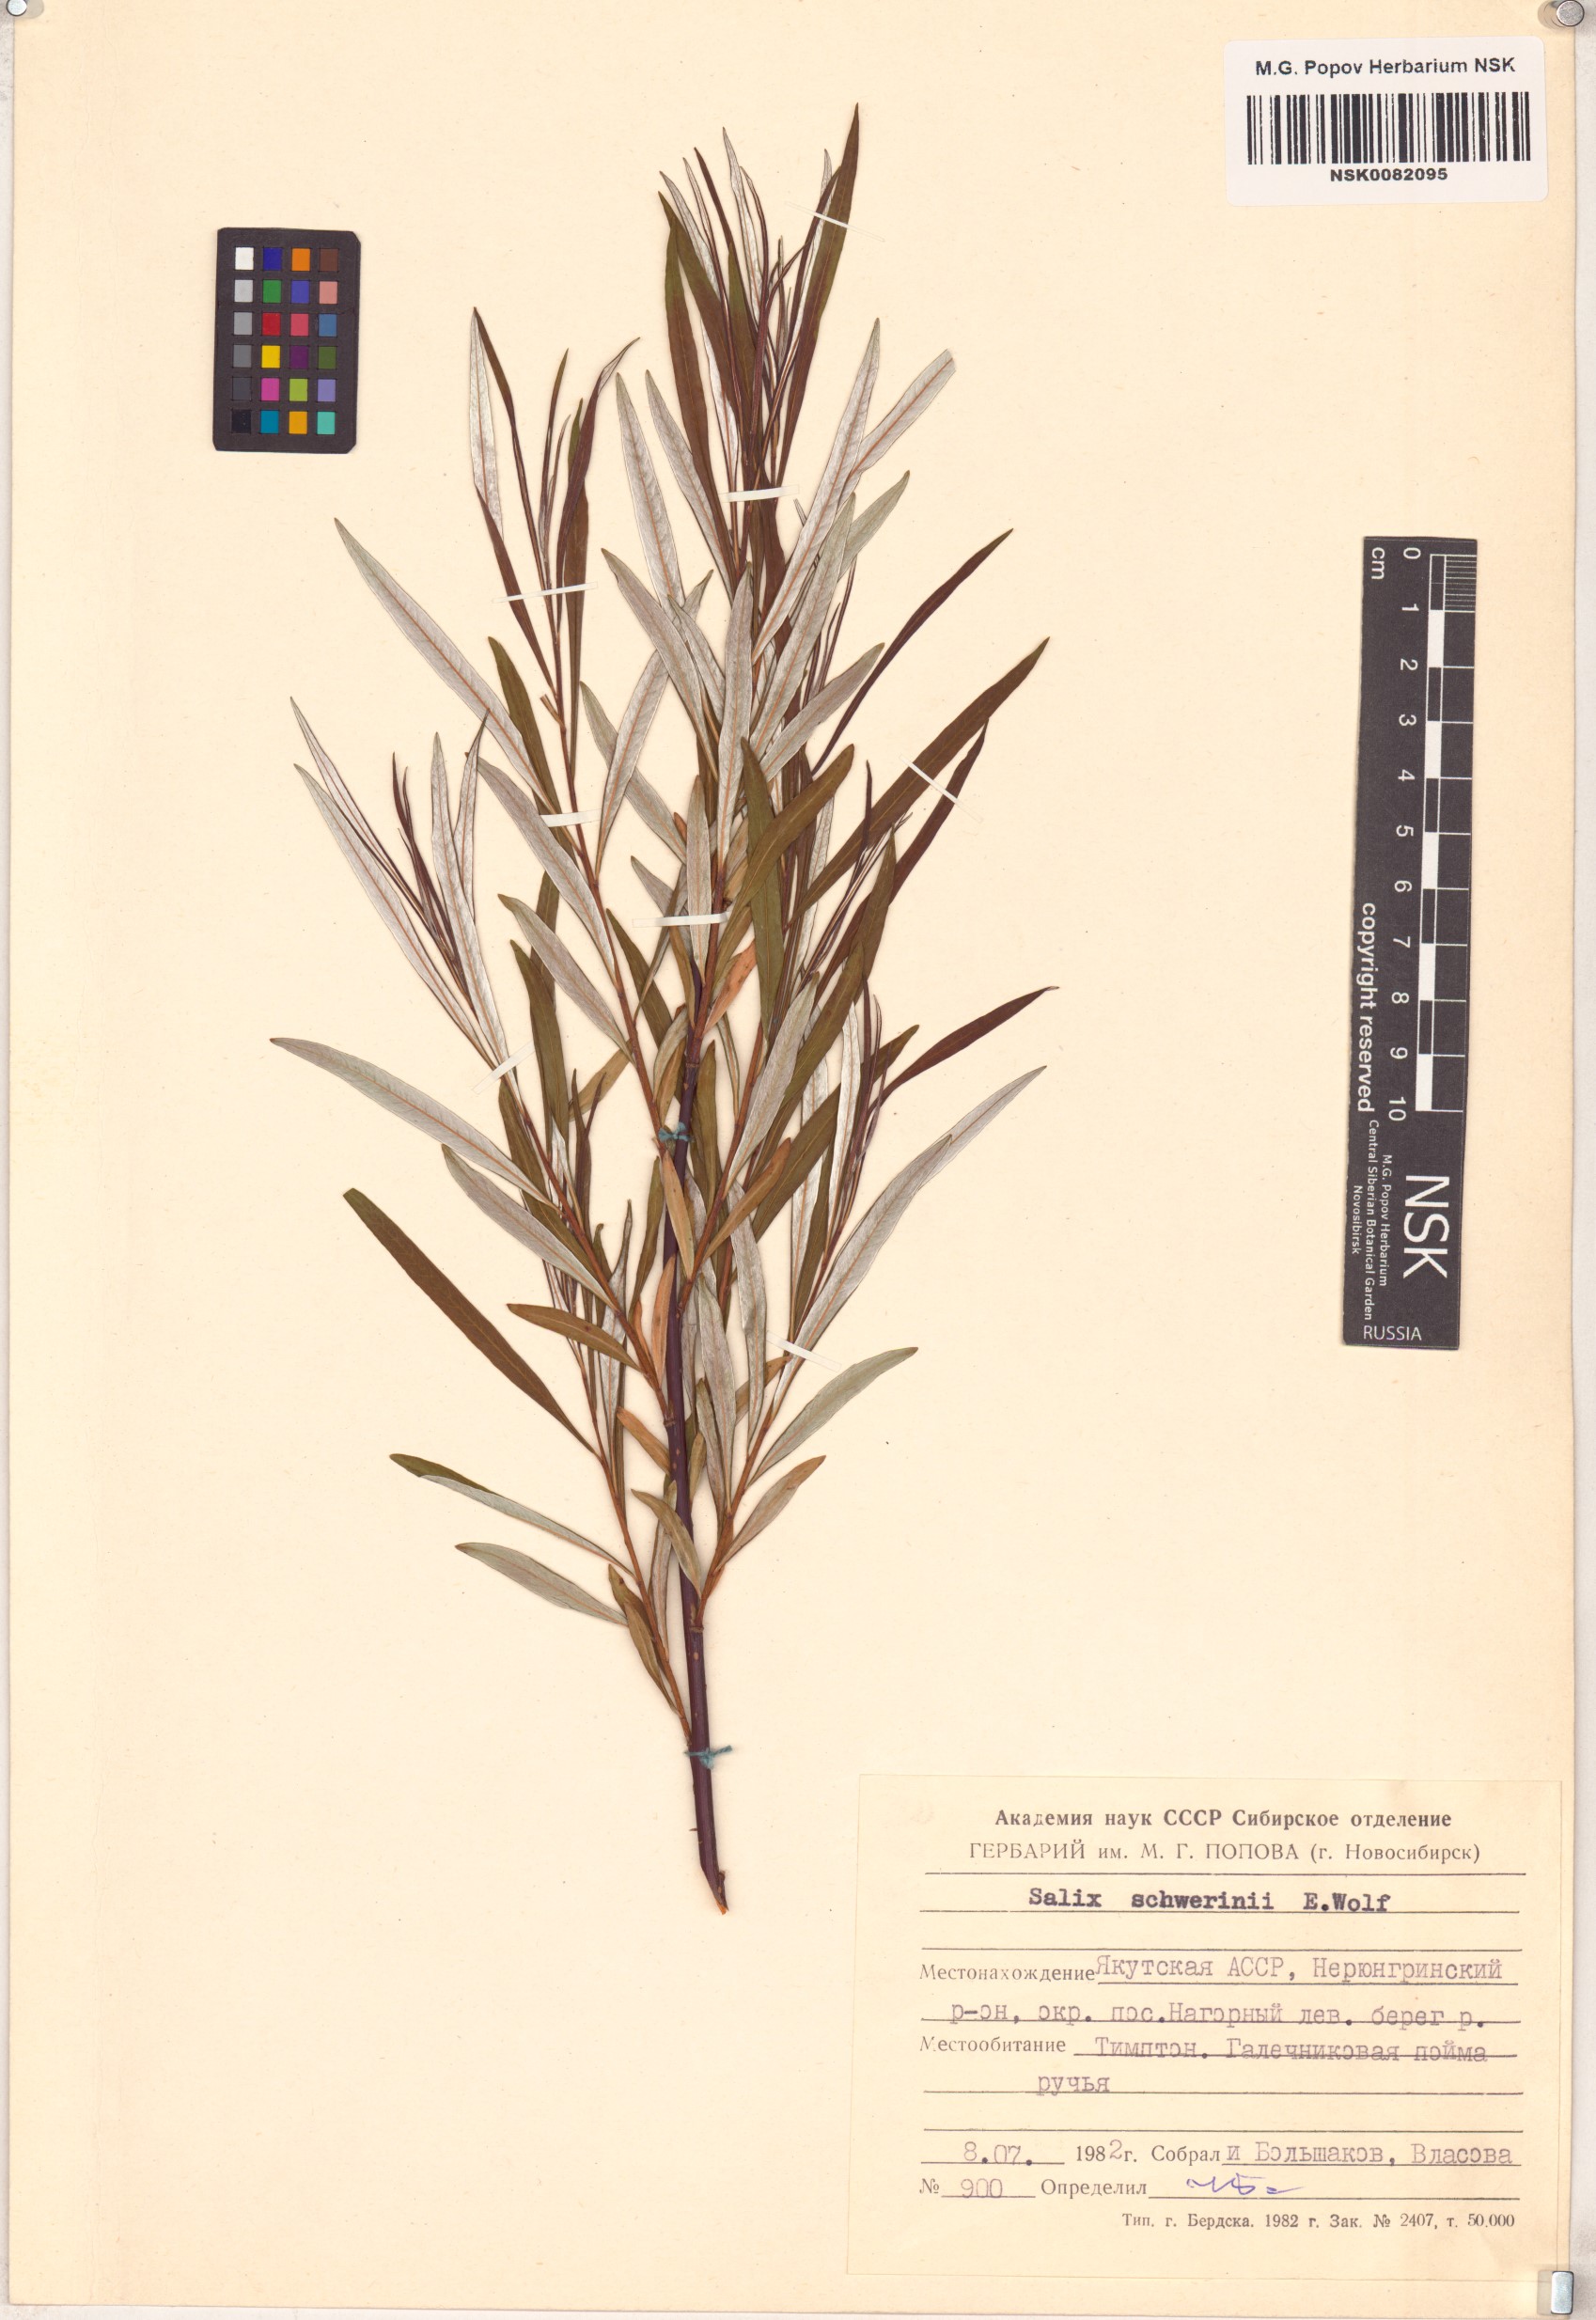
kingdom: Plantae
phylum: Tracheophyta
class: Magnoliopsida
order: Malpighiales
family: Salicaceae
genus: Salix
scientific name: Salix schwerinii
